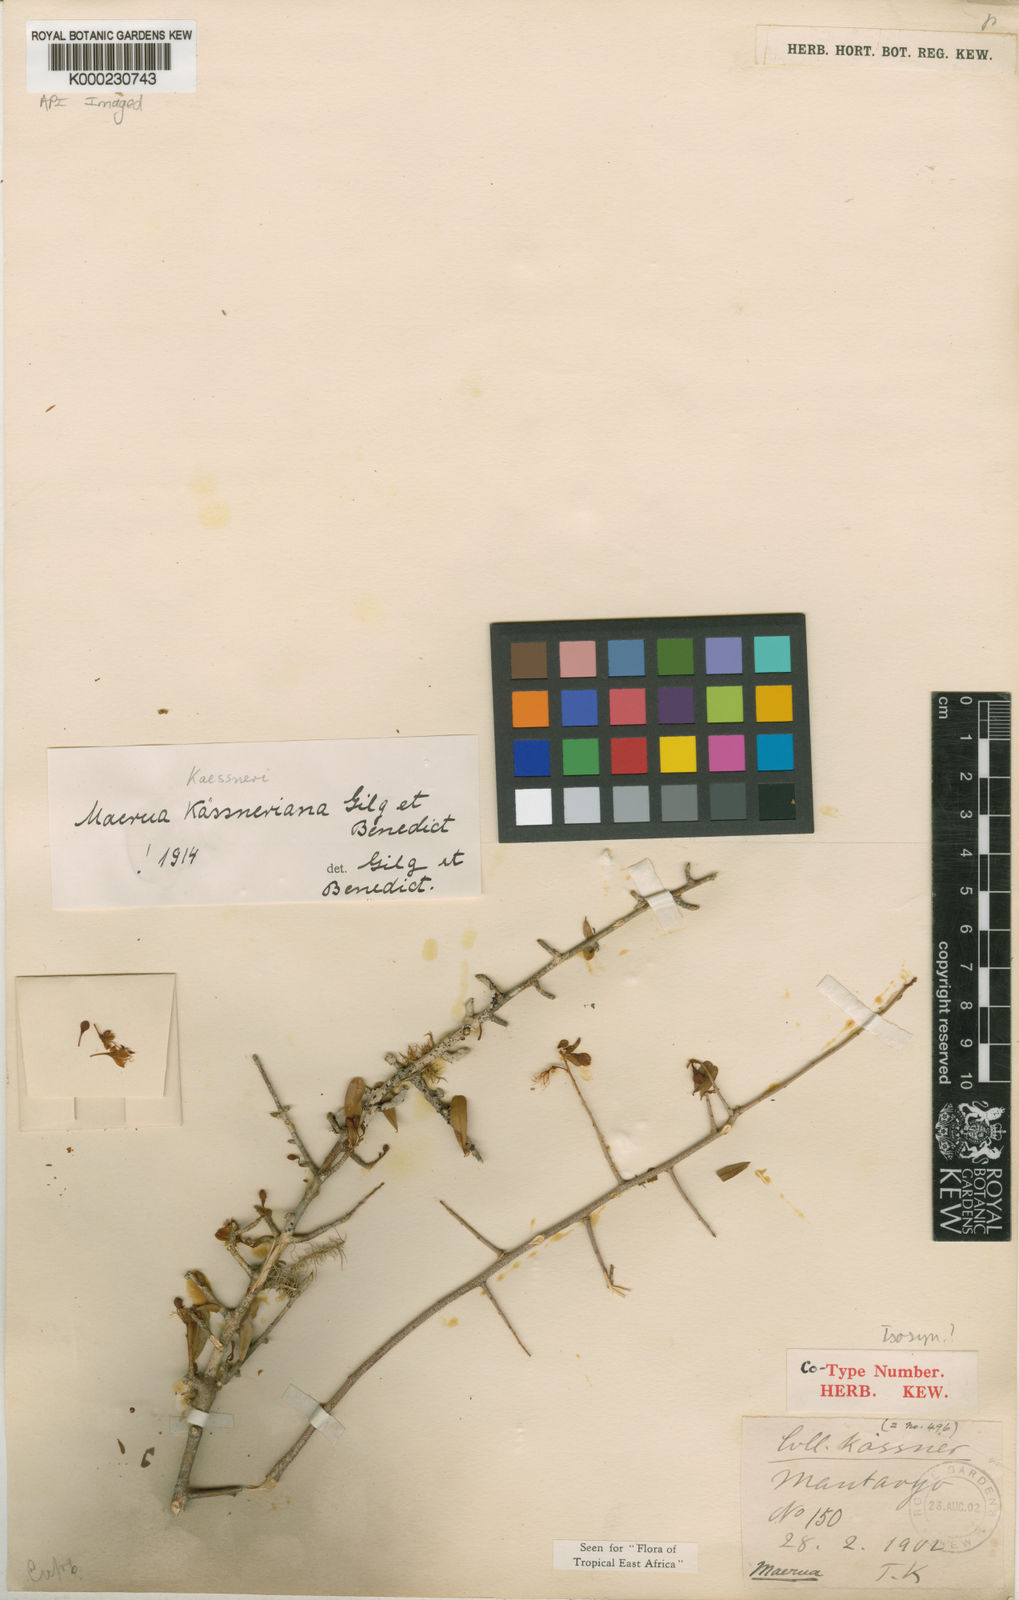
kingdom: Plantae
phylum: Tracheophyta
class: Magnoliopsida
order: Brassicales
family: Capparaceae
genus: Maerua
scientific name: Maerua
